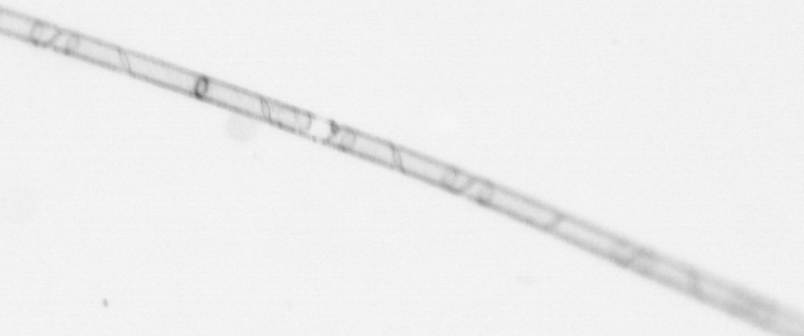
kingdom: Chromista
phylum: Ochrophyta
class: Bacillariophyceae
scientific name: Bacillariophyceae
